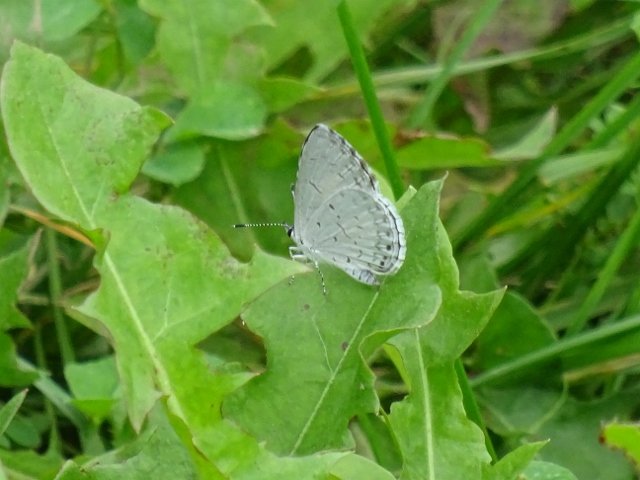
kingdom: Animalia
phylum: Arthropoda
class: Insecta
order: Lepidoptera
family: Lycaenidae
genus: Celastrina
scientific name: Celastrina lucia
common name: Northern Spring Azure
